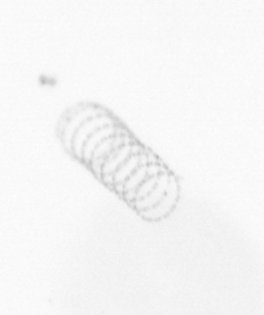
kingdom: Chromista
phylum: Ochrophyta
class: Bacillariophyceae
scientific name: Bacillariophyceae
